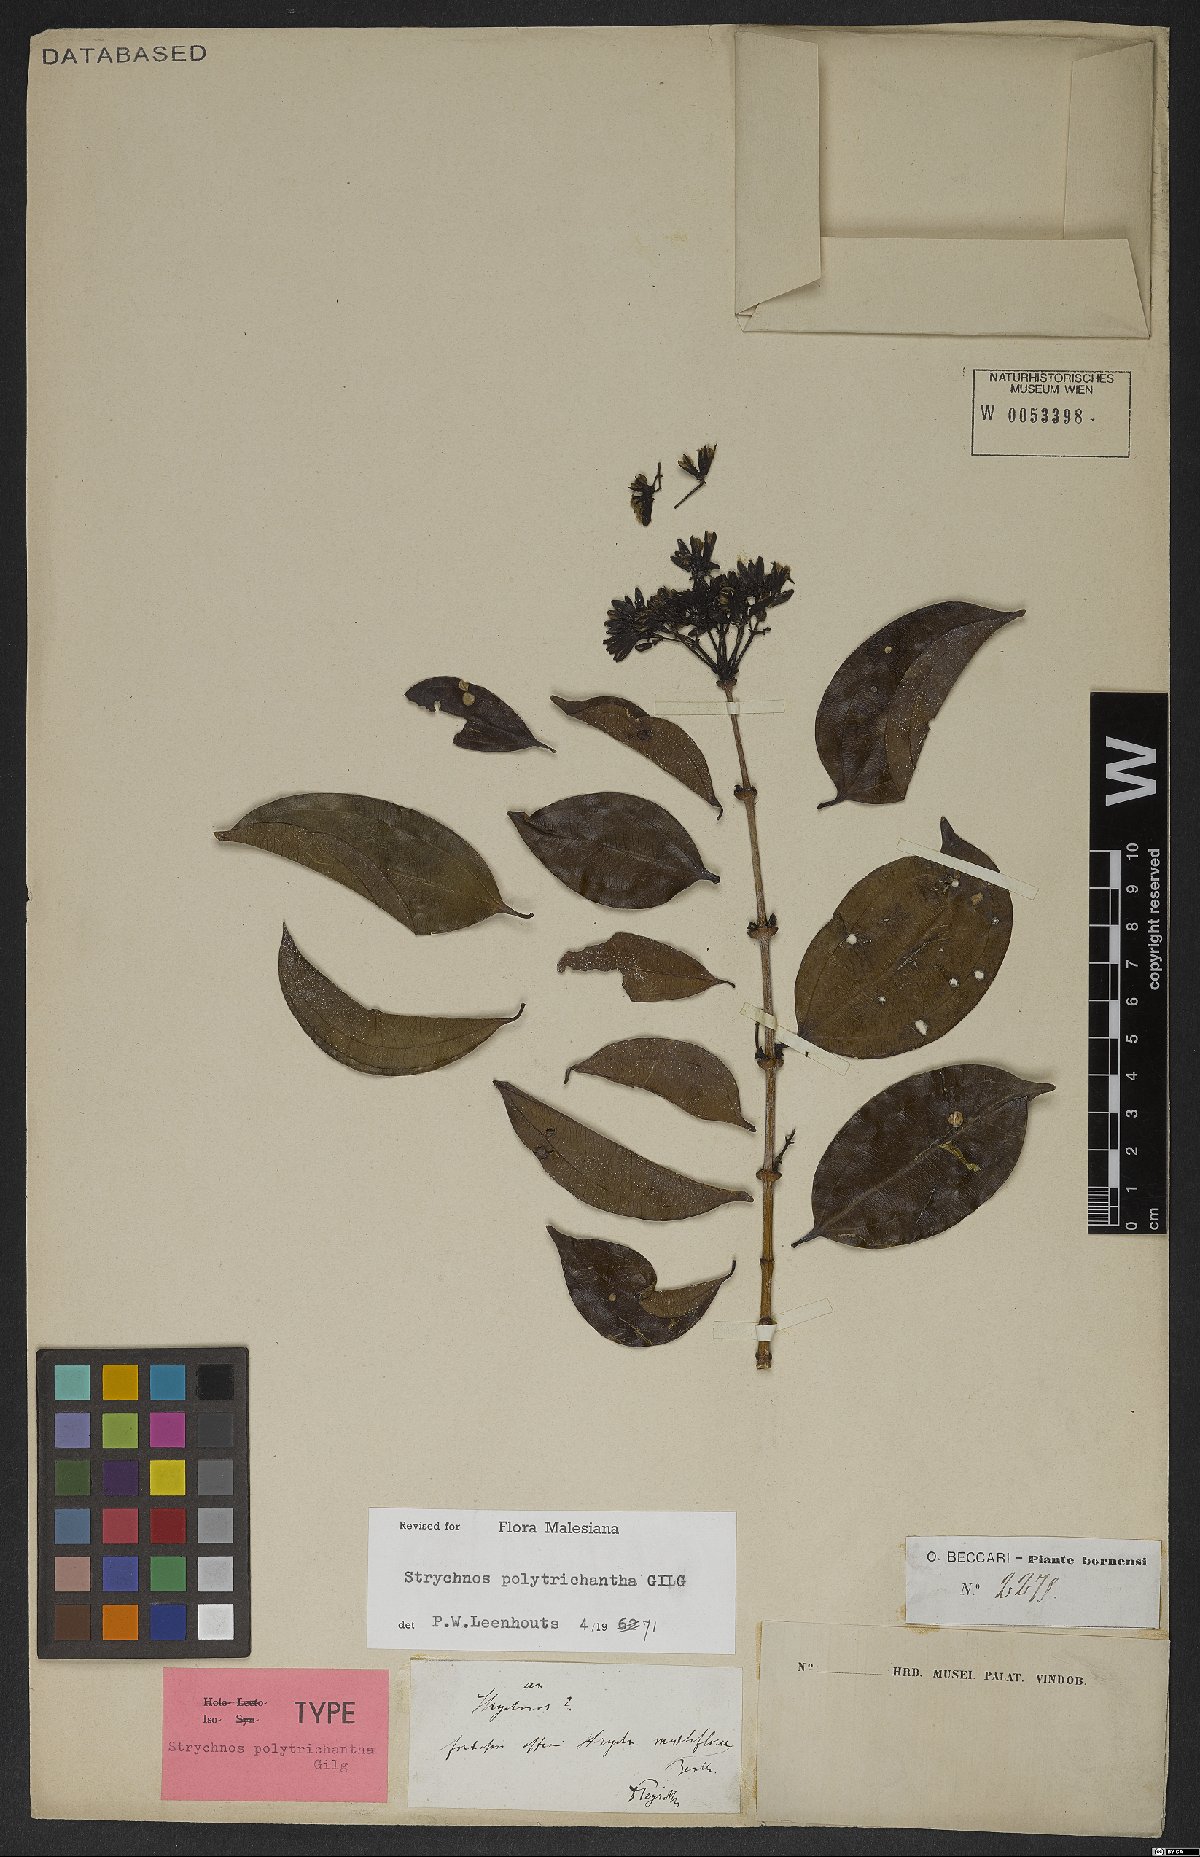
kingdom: Plantae
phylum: Tracheophyta
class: Magnoliopsida
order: Gentianales
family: Loganiaceae
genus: Strychnos
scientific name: Strychnos polytrichantha
